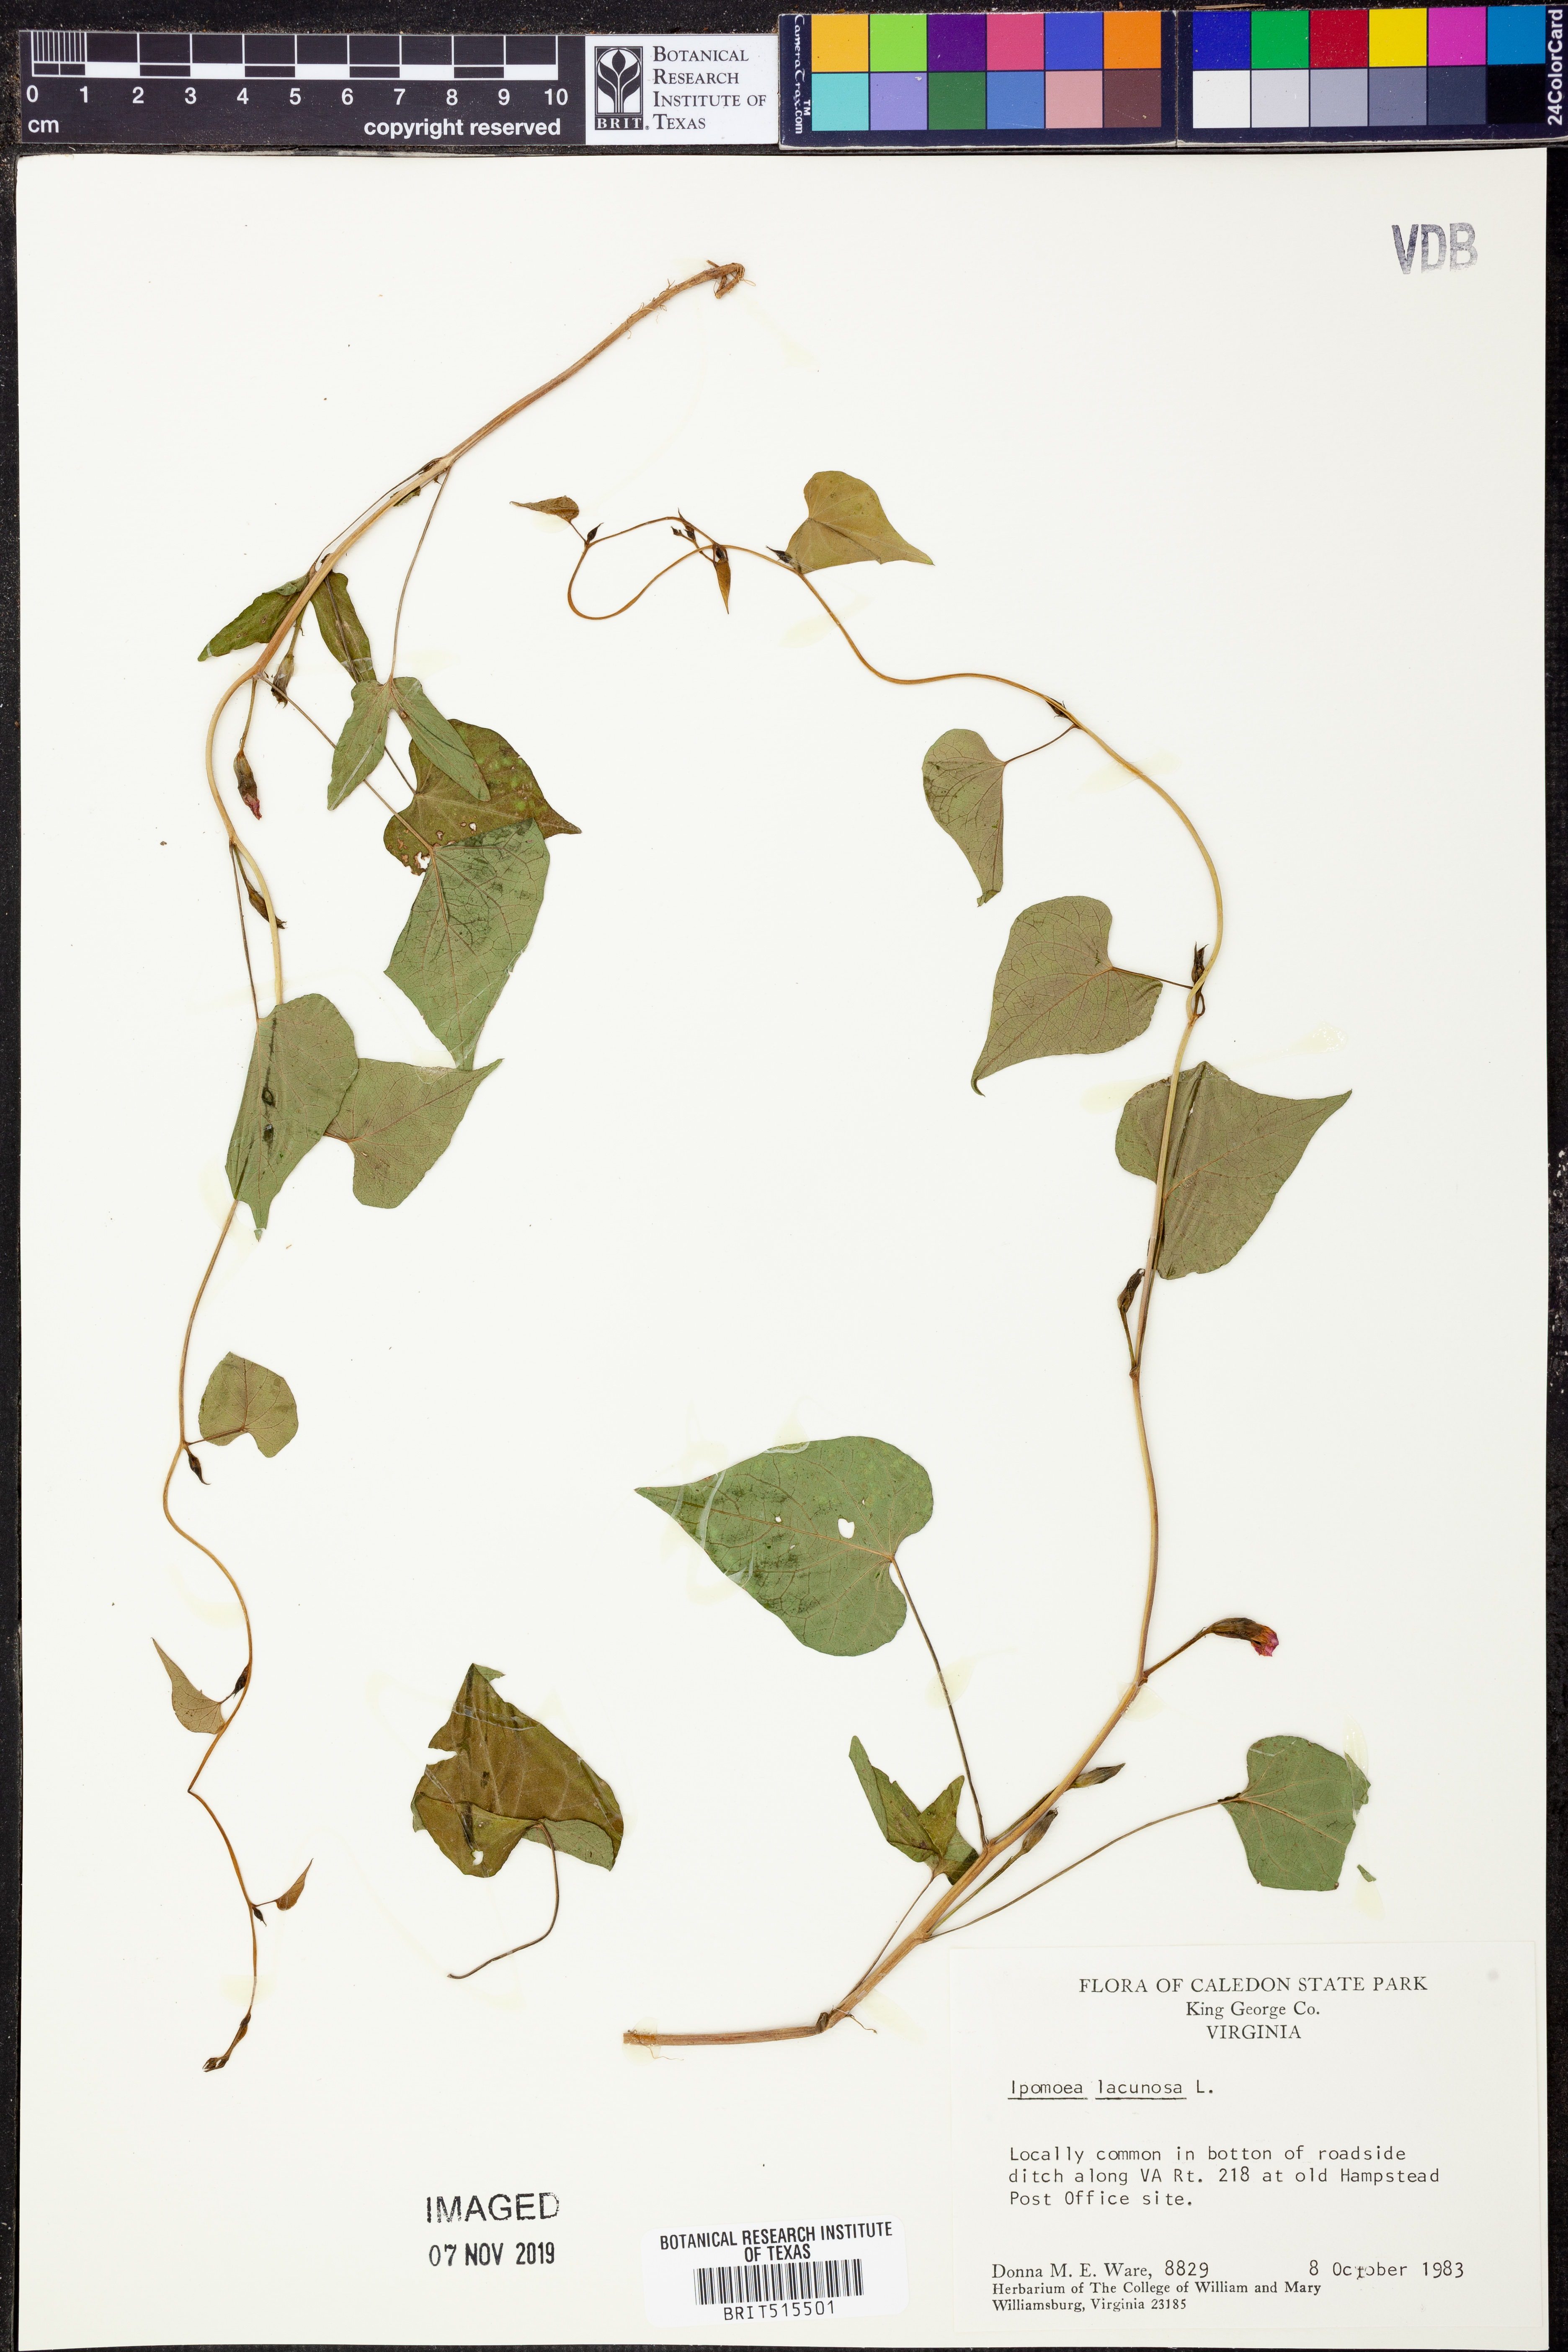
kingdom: Plantae
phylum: Tracheophyta
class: Magnoliopsida
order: Solanales
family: Convolvulaceae
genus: Ipomoea
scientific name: Ipomoea lacunosa
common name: White morning-glory
